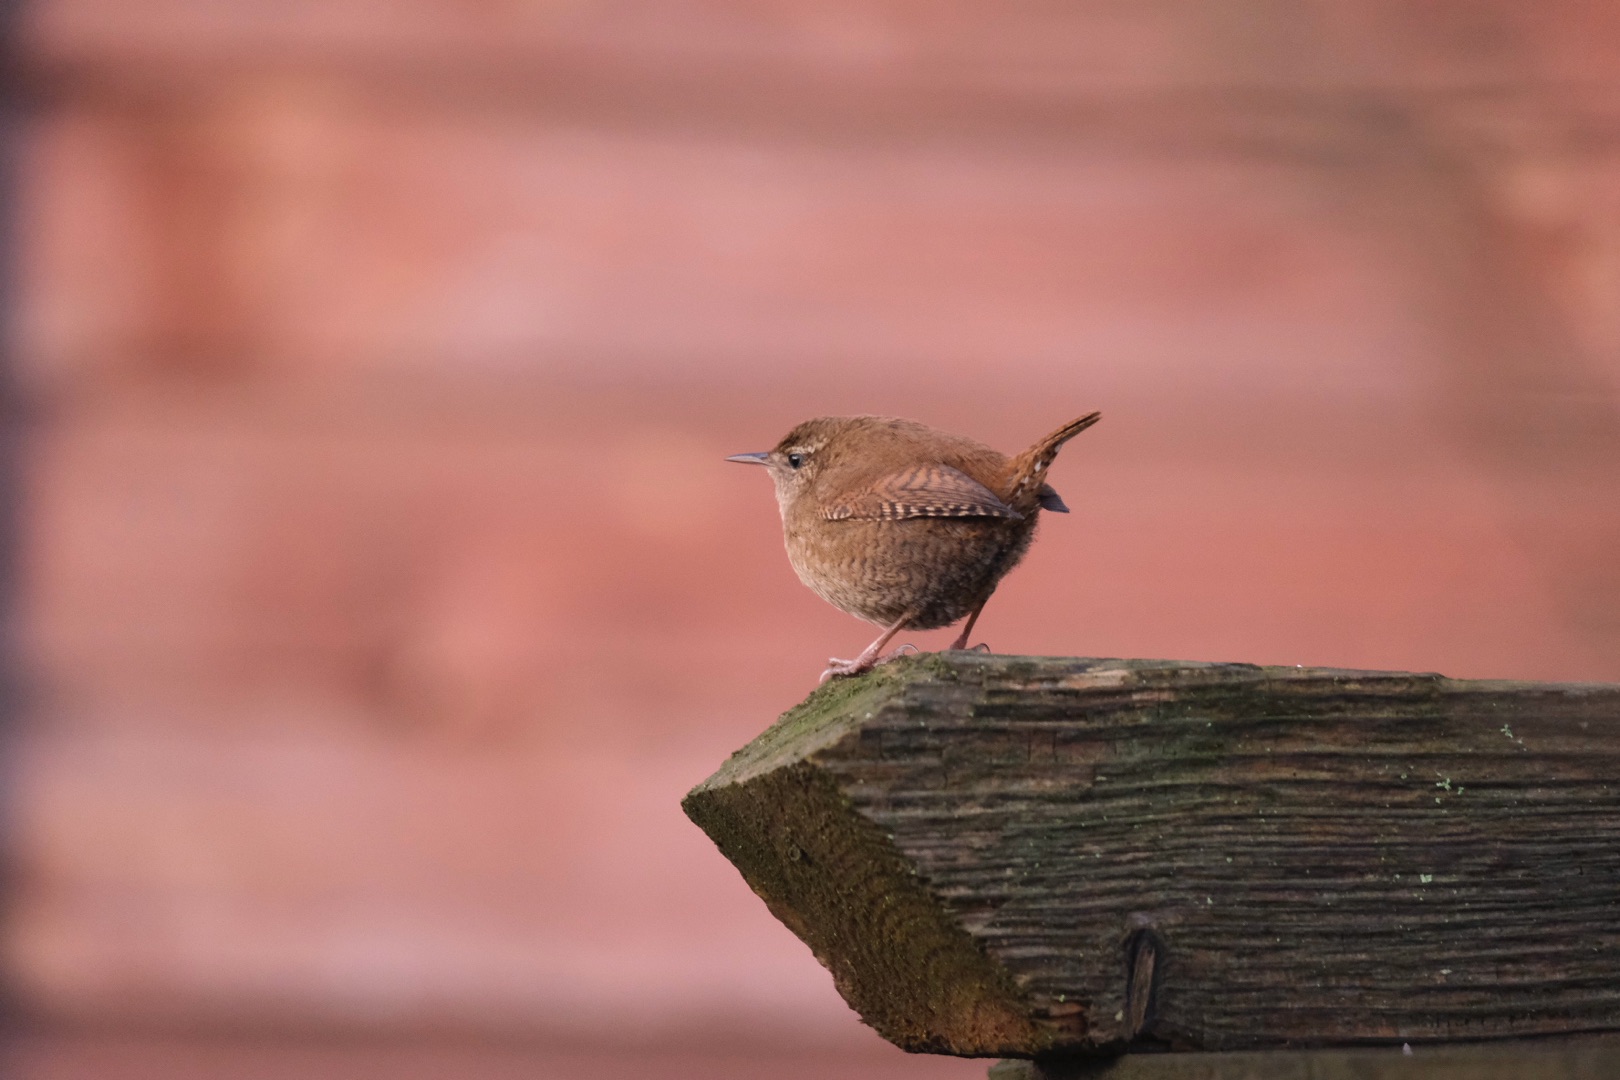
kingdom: Animalia
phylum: Chordata
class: Aves
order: Passeriformes
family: Troglodytidae
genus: Troglodytes
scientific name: Troglodytes troglodytes
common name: Gærdesmutte
